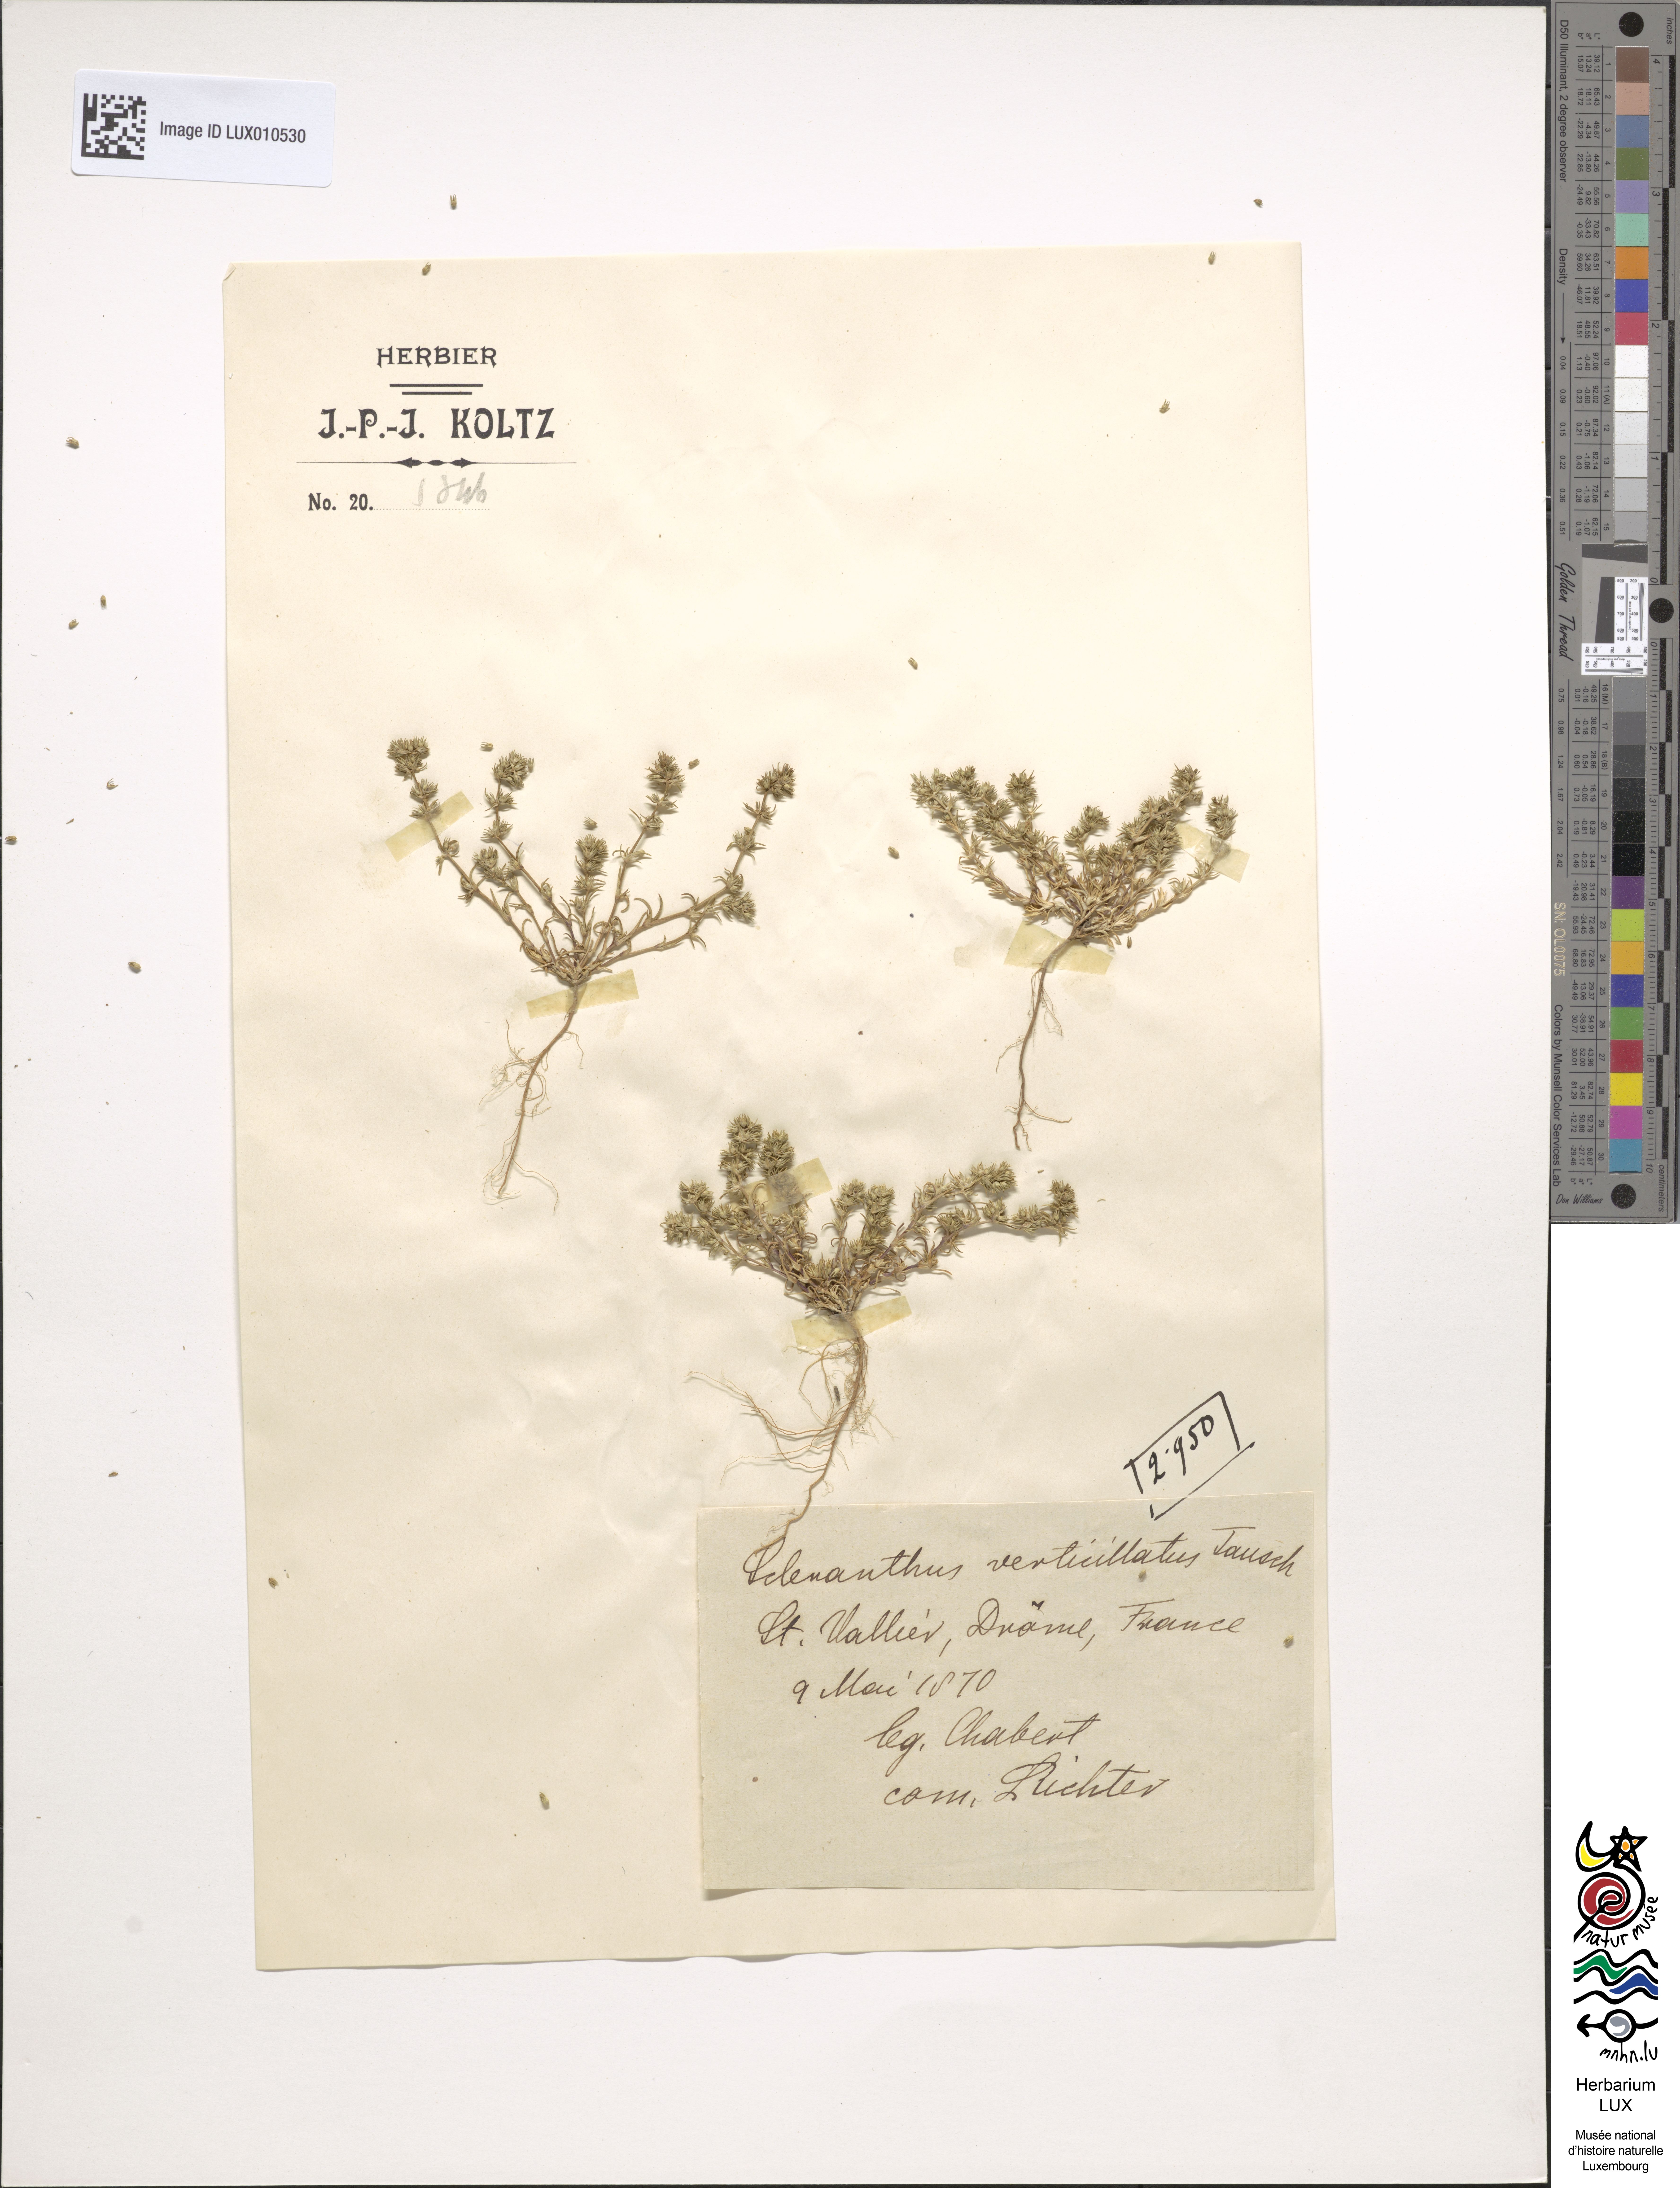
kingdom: Plantae
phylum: Tracheophyta
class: Magnoliopsida
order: Caryophyllales
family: Caryophyllaceae
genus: Scleranthus
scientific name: Scleranthus annuus
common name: Annual knawel
